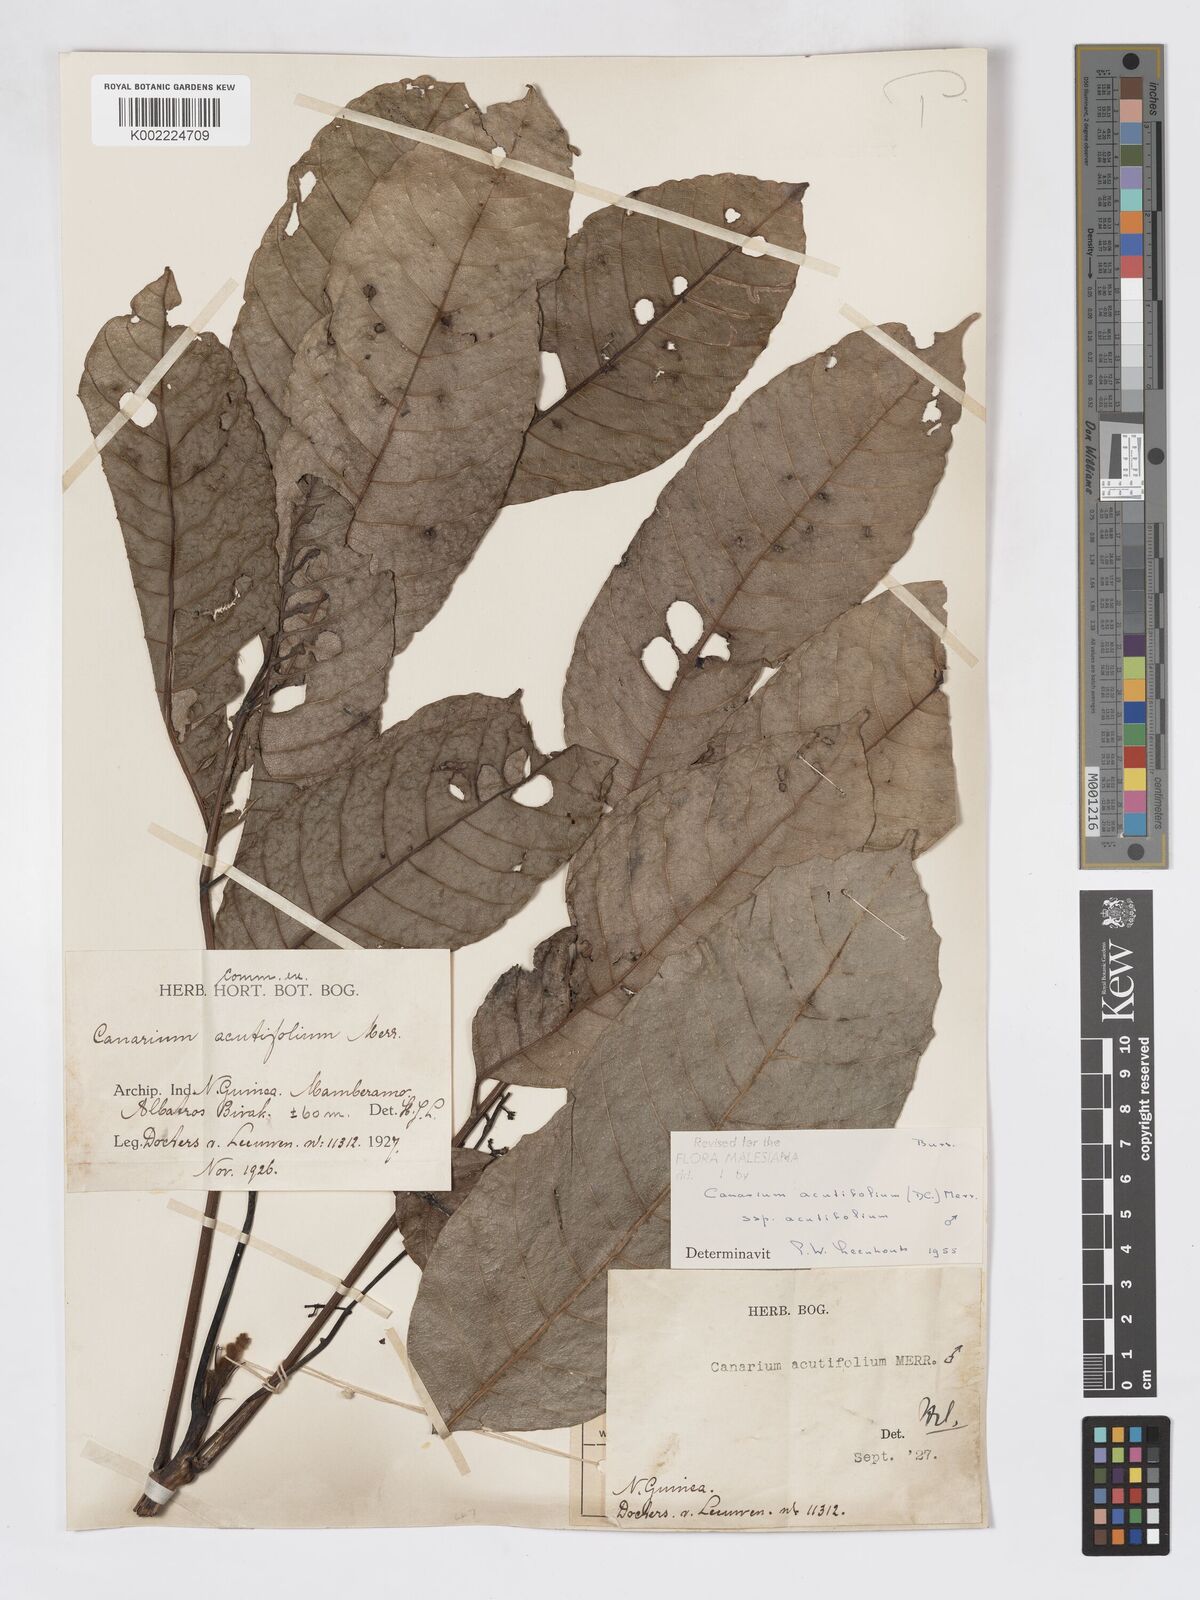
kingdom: Plantae
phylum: Tracheophyta
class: Magnoliopsida
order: Sapindales
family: Burseraceae
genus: Canarium
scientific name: Canarium acutifolium
